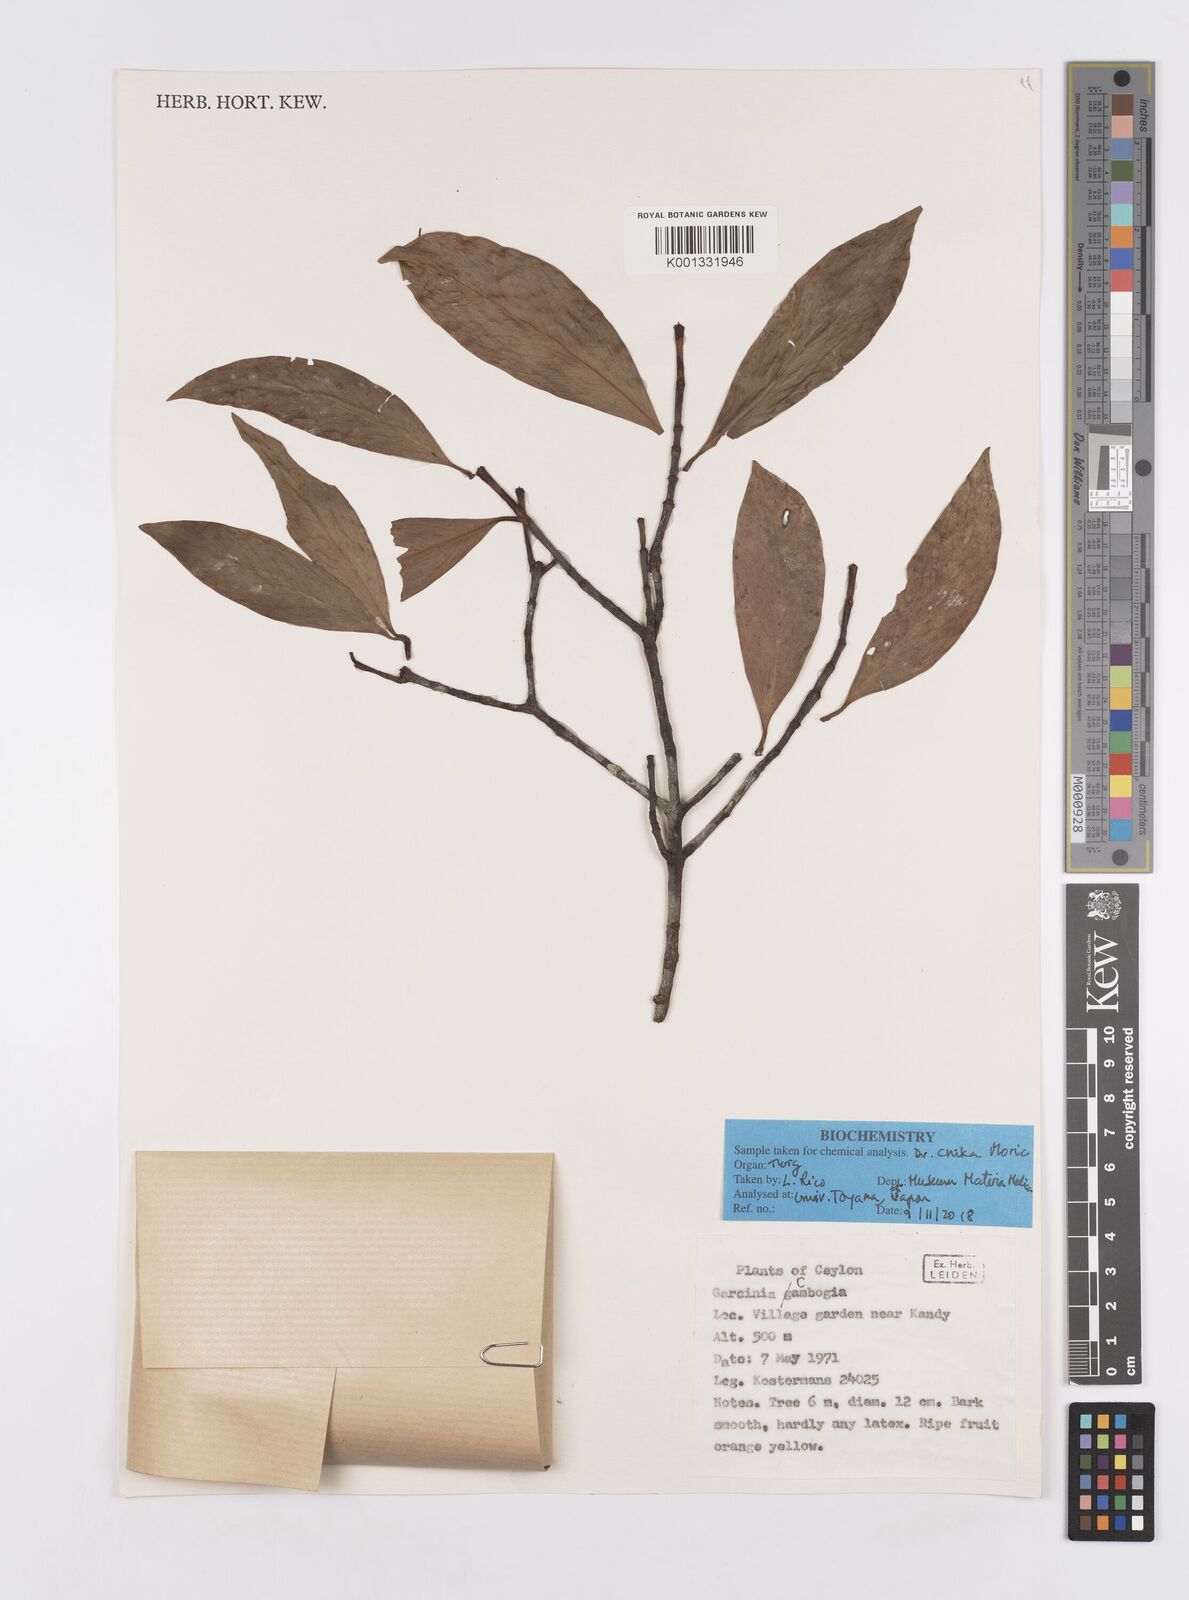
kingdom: Plantae
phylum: Tracheophyta
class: Magnoliopsida
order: Malpighiales
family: Clusiaceae
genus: Garcinia
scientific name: Garcinia gummi-gutta
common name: Malabar tamarind
